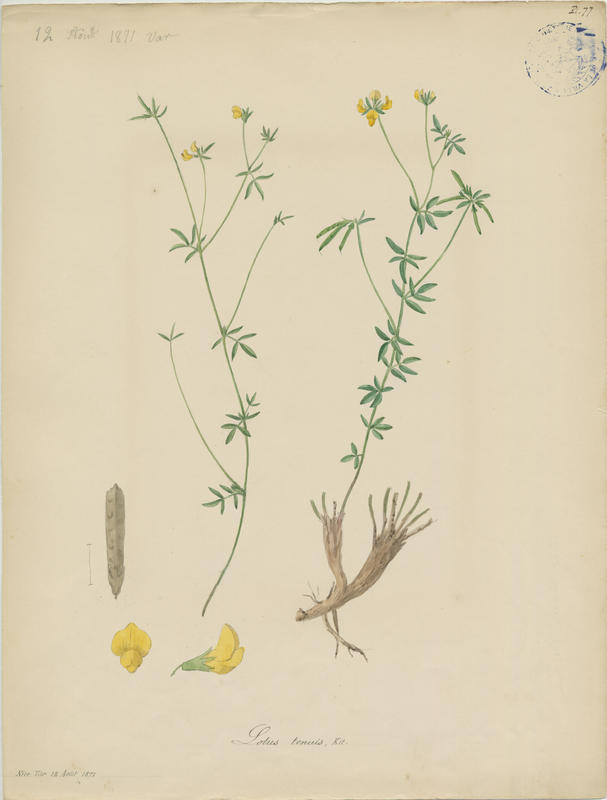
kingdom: Plantae
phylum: Tracheophyta
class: Magnoliopsida
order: Fabales
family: Fabaceae
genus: Lotus
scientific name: Lotus tenuis
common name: Narrow-leaved bird's-foot-trefoil
